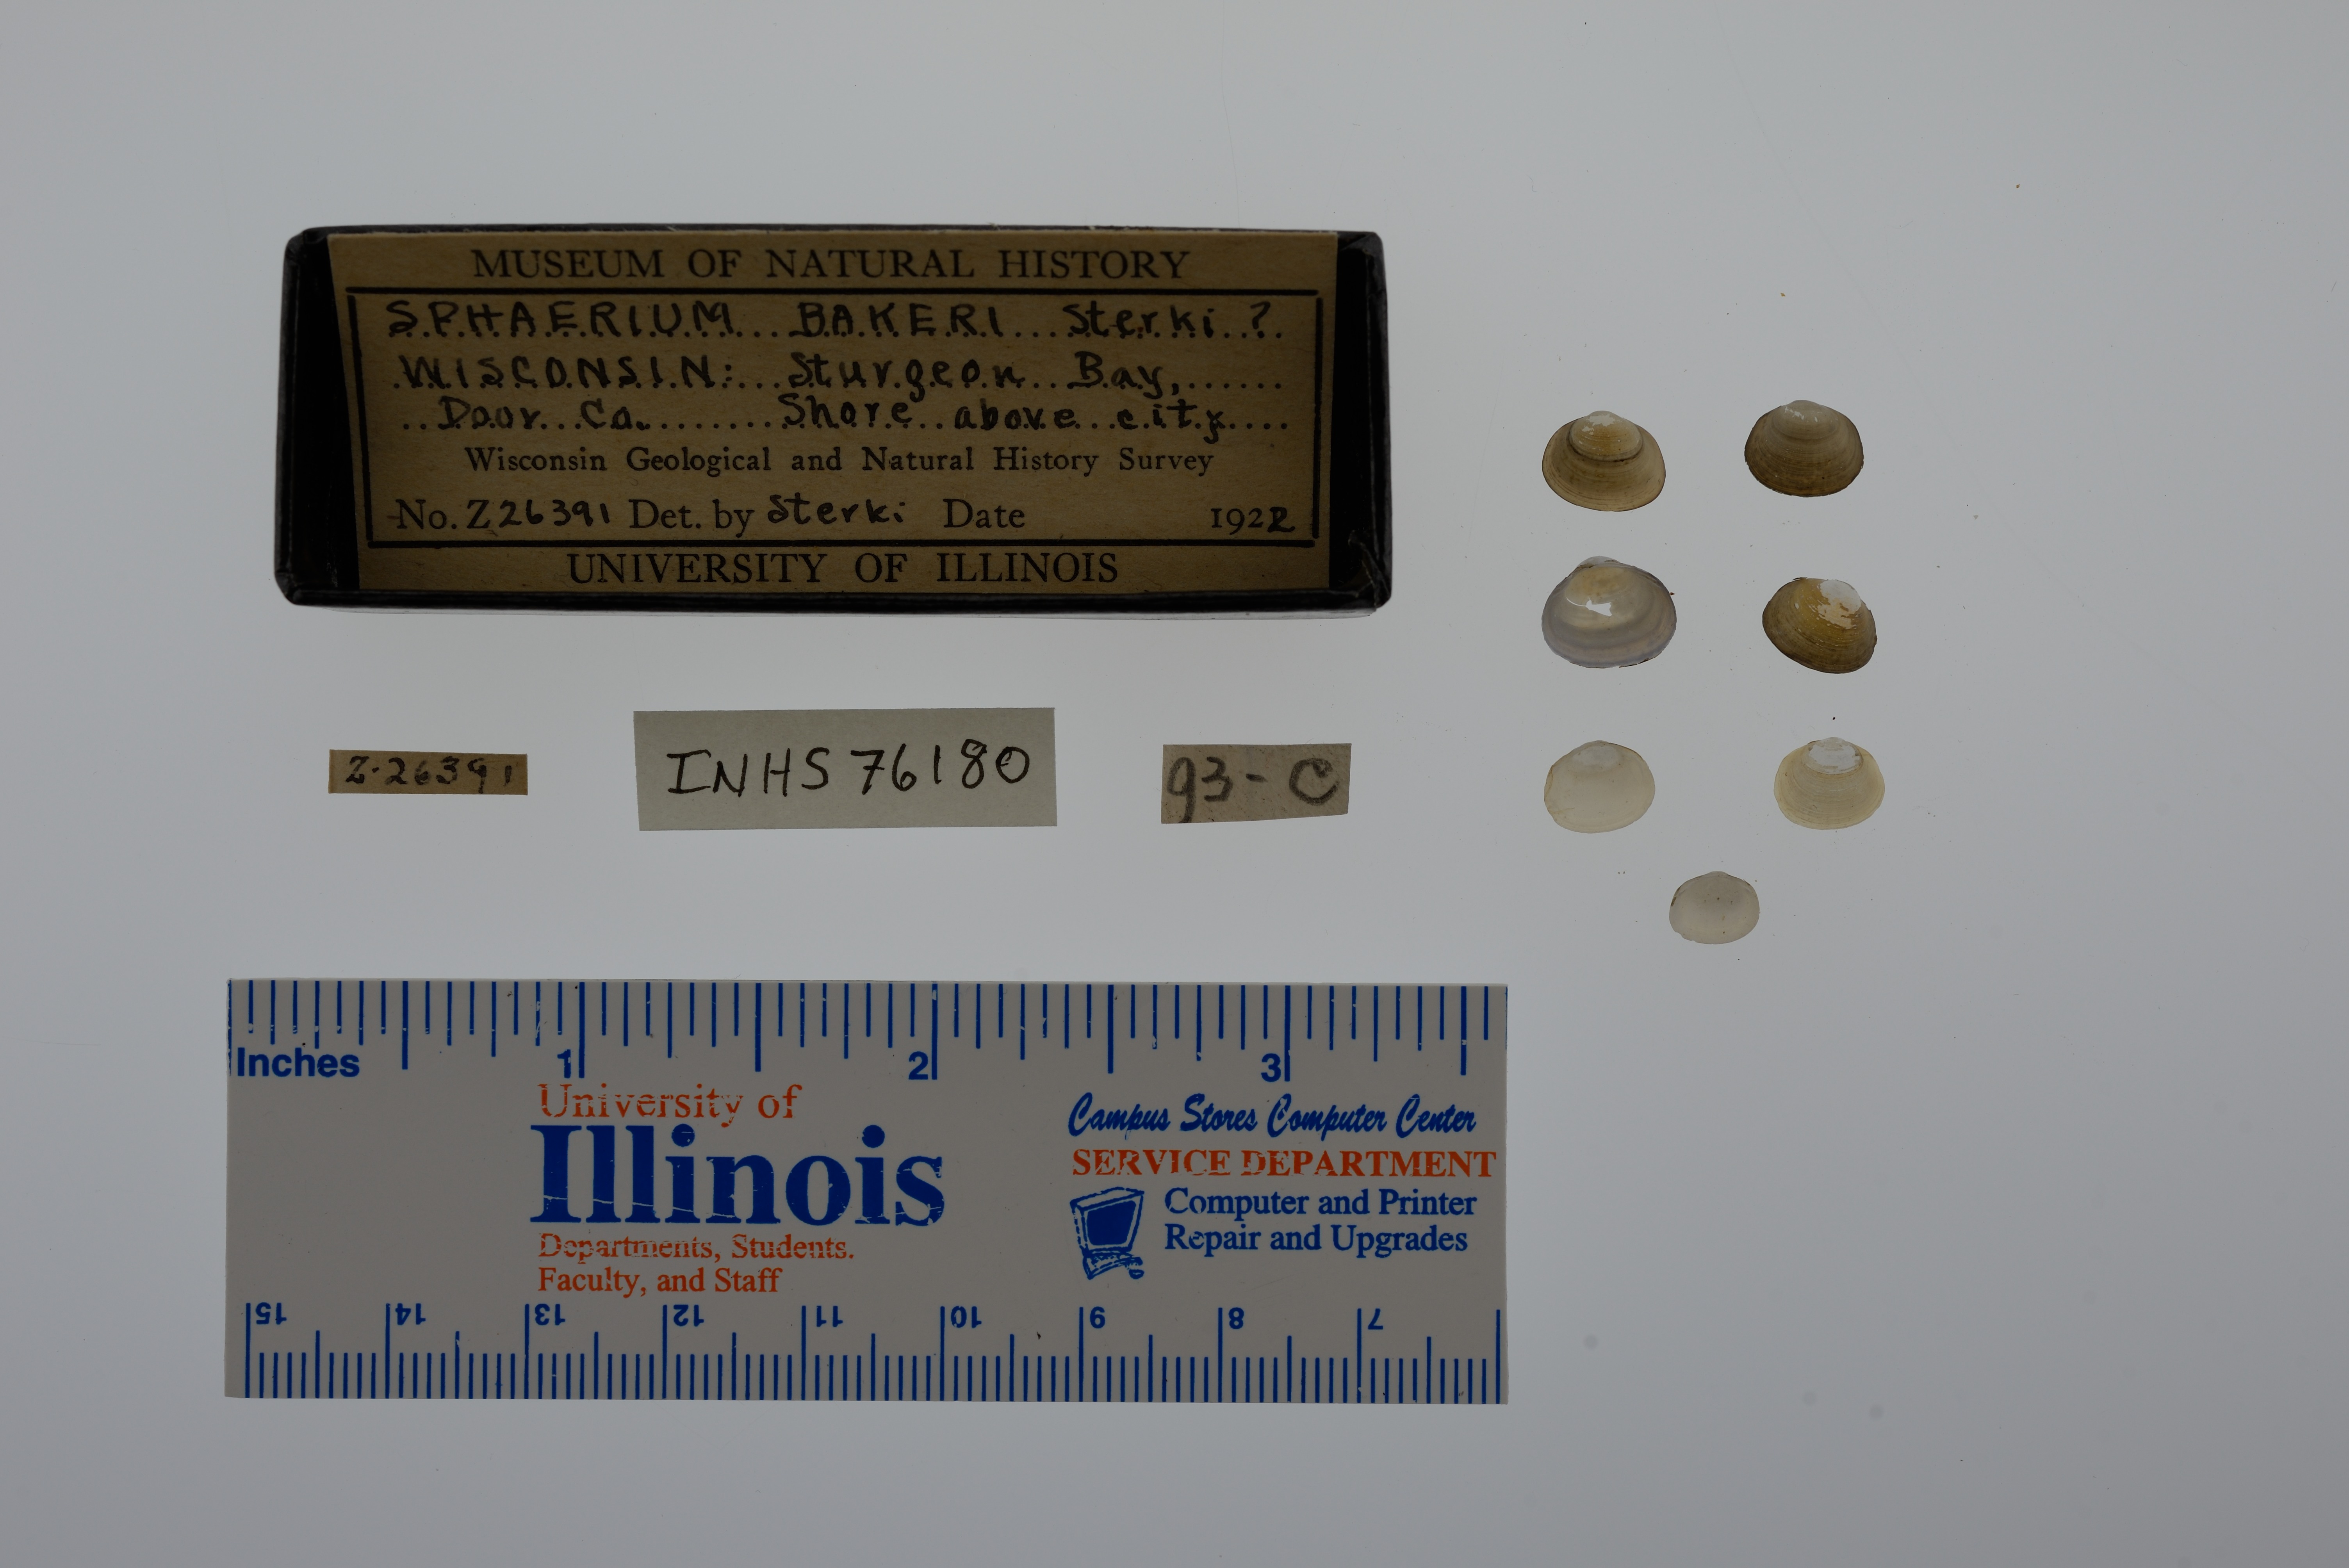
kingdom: Animalia
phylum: Mollusca
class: Bivalvia
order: Sphaeriida
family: Sphaeriidae
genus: Sphaerium
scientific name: Sphaerium striatinum
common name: Striated fingernailclam
